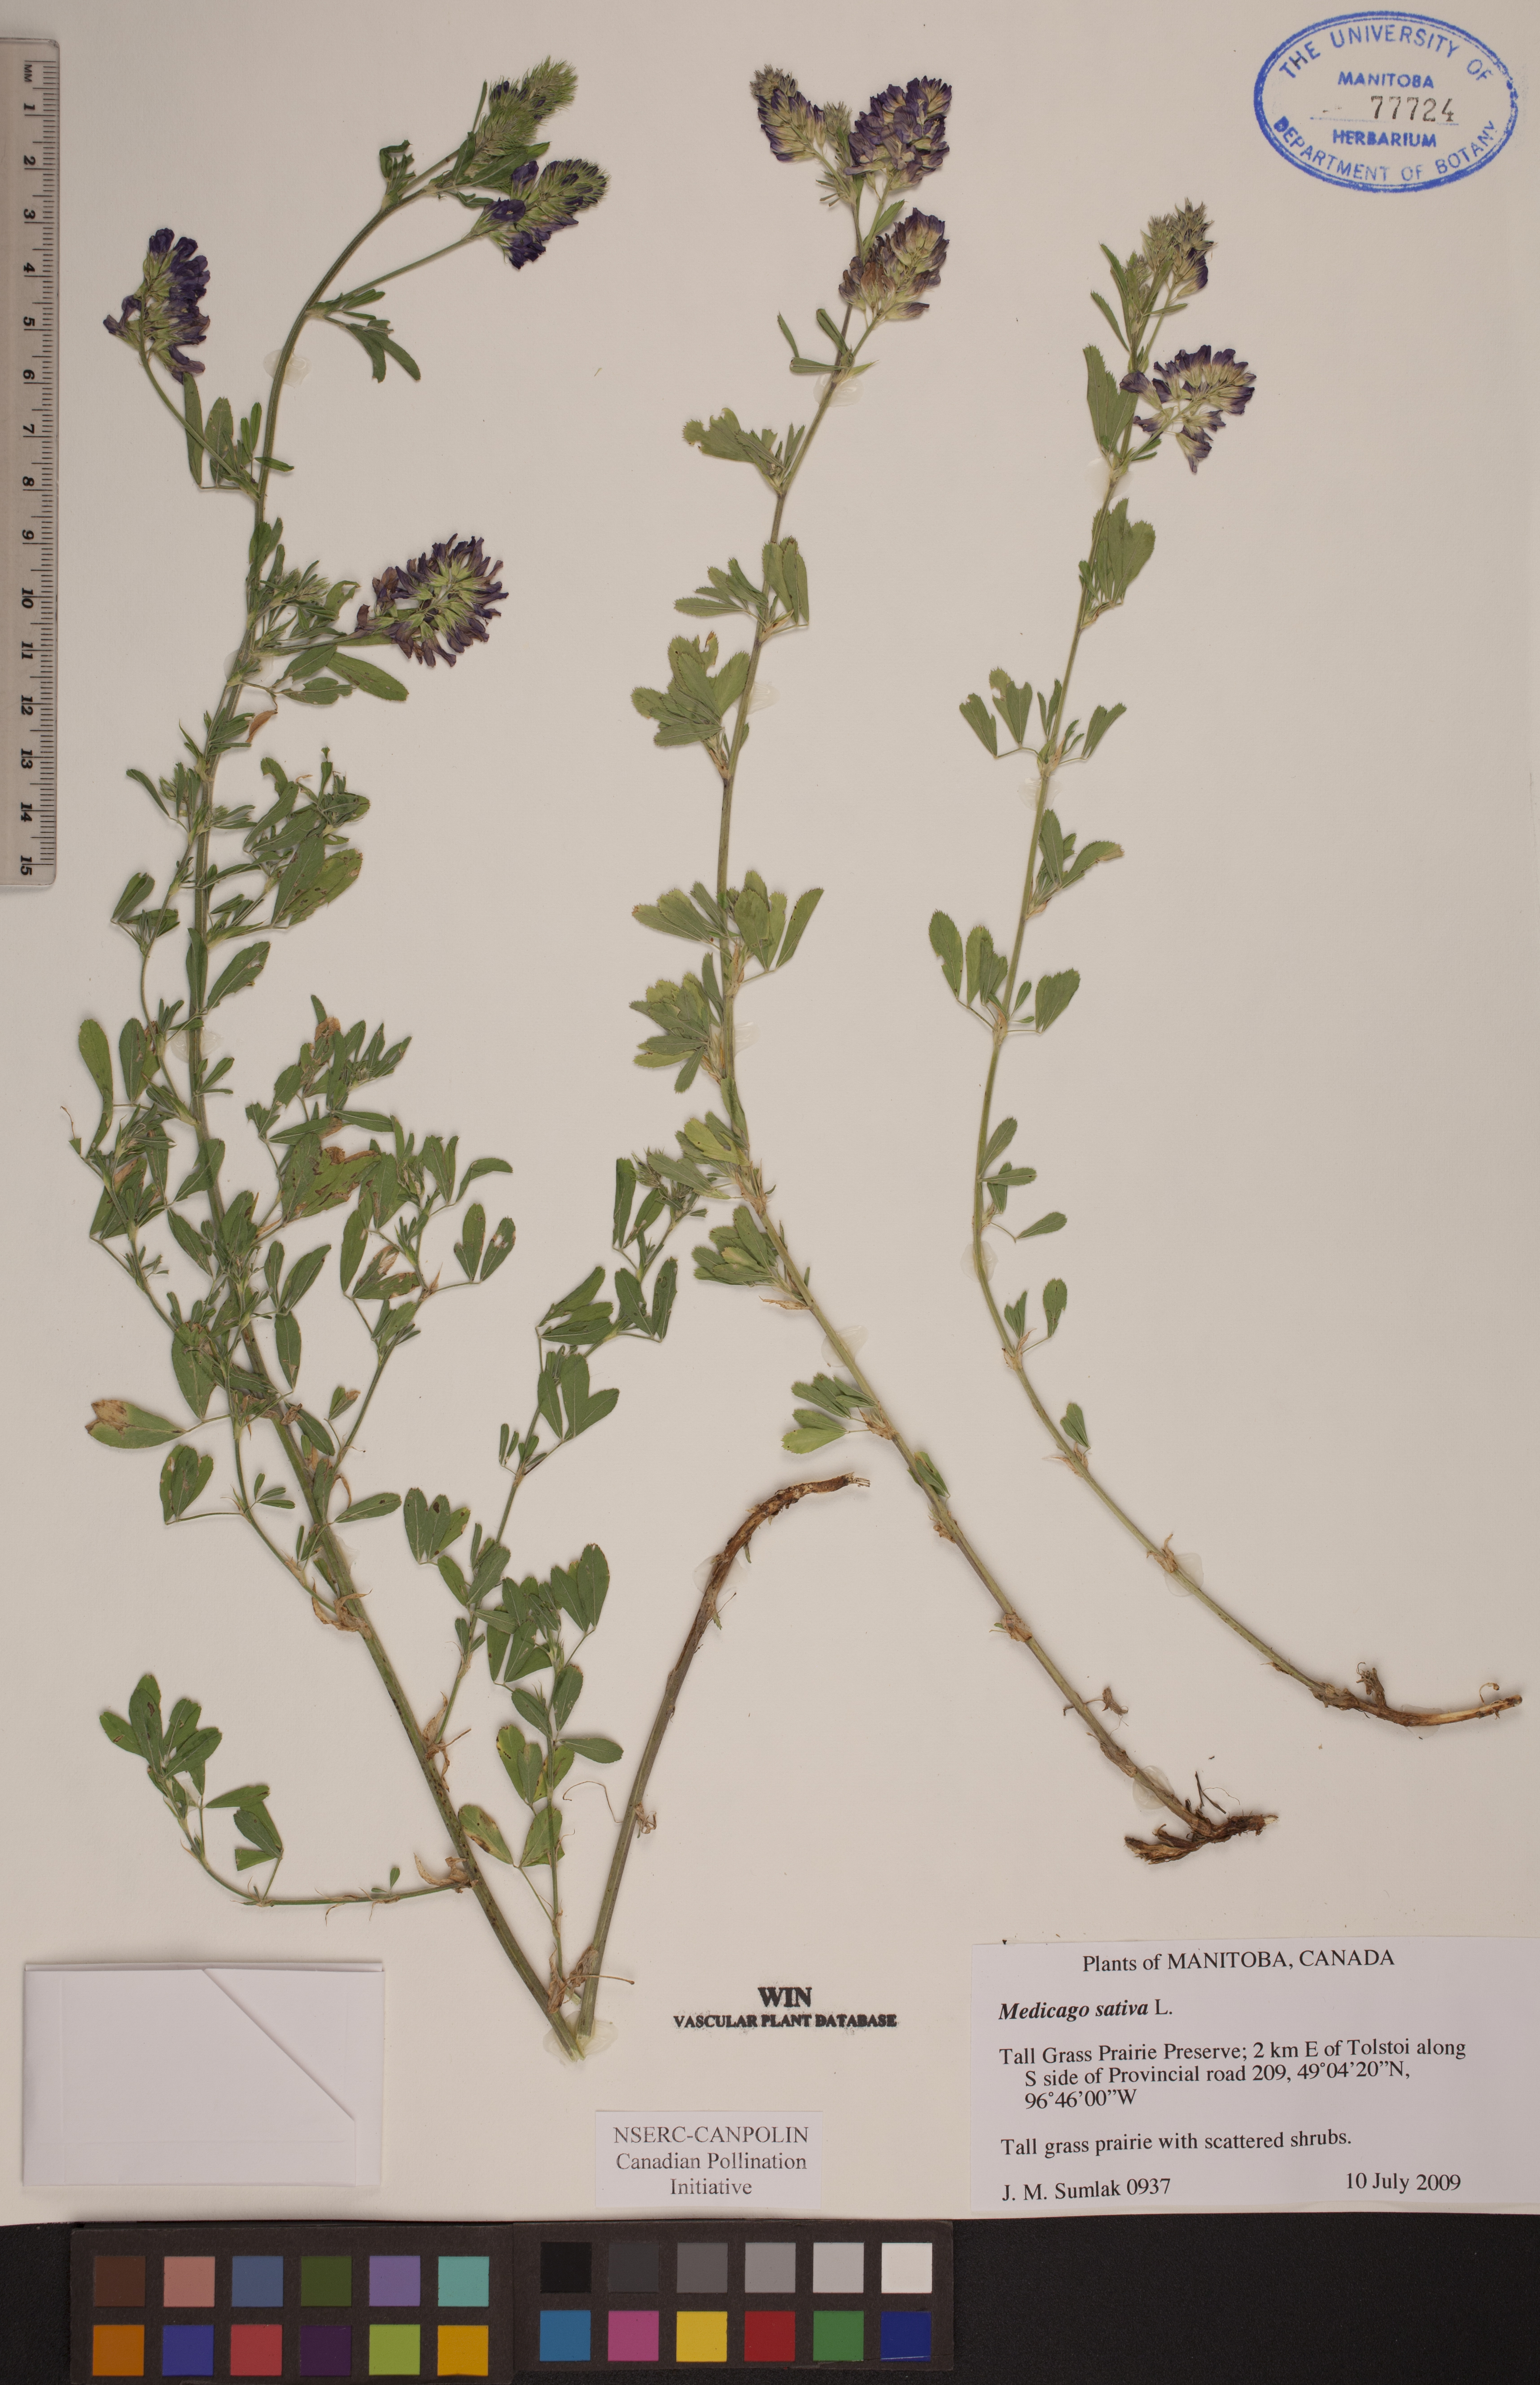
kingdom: Plantae
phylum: Tracheophyta
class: Magnoliopsida
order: Fabales
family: Fabaceae
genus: Medicago
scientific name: Medicago sativa
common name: Alfalfa
